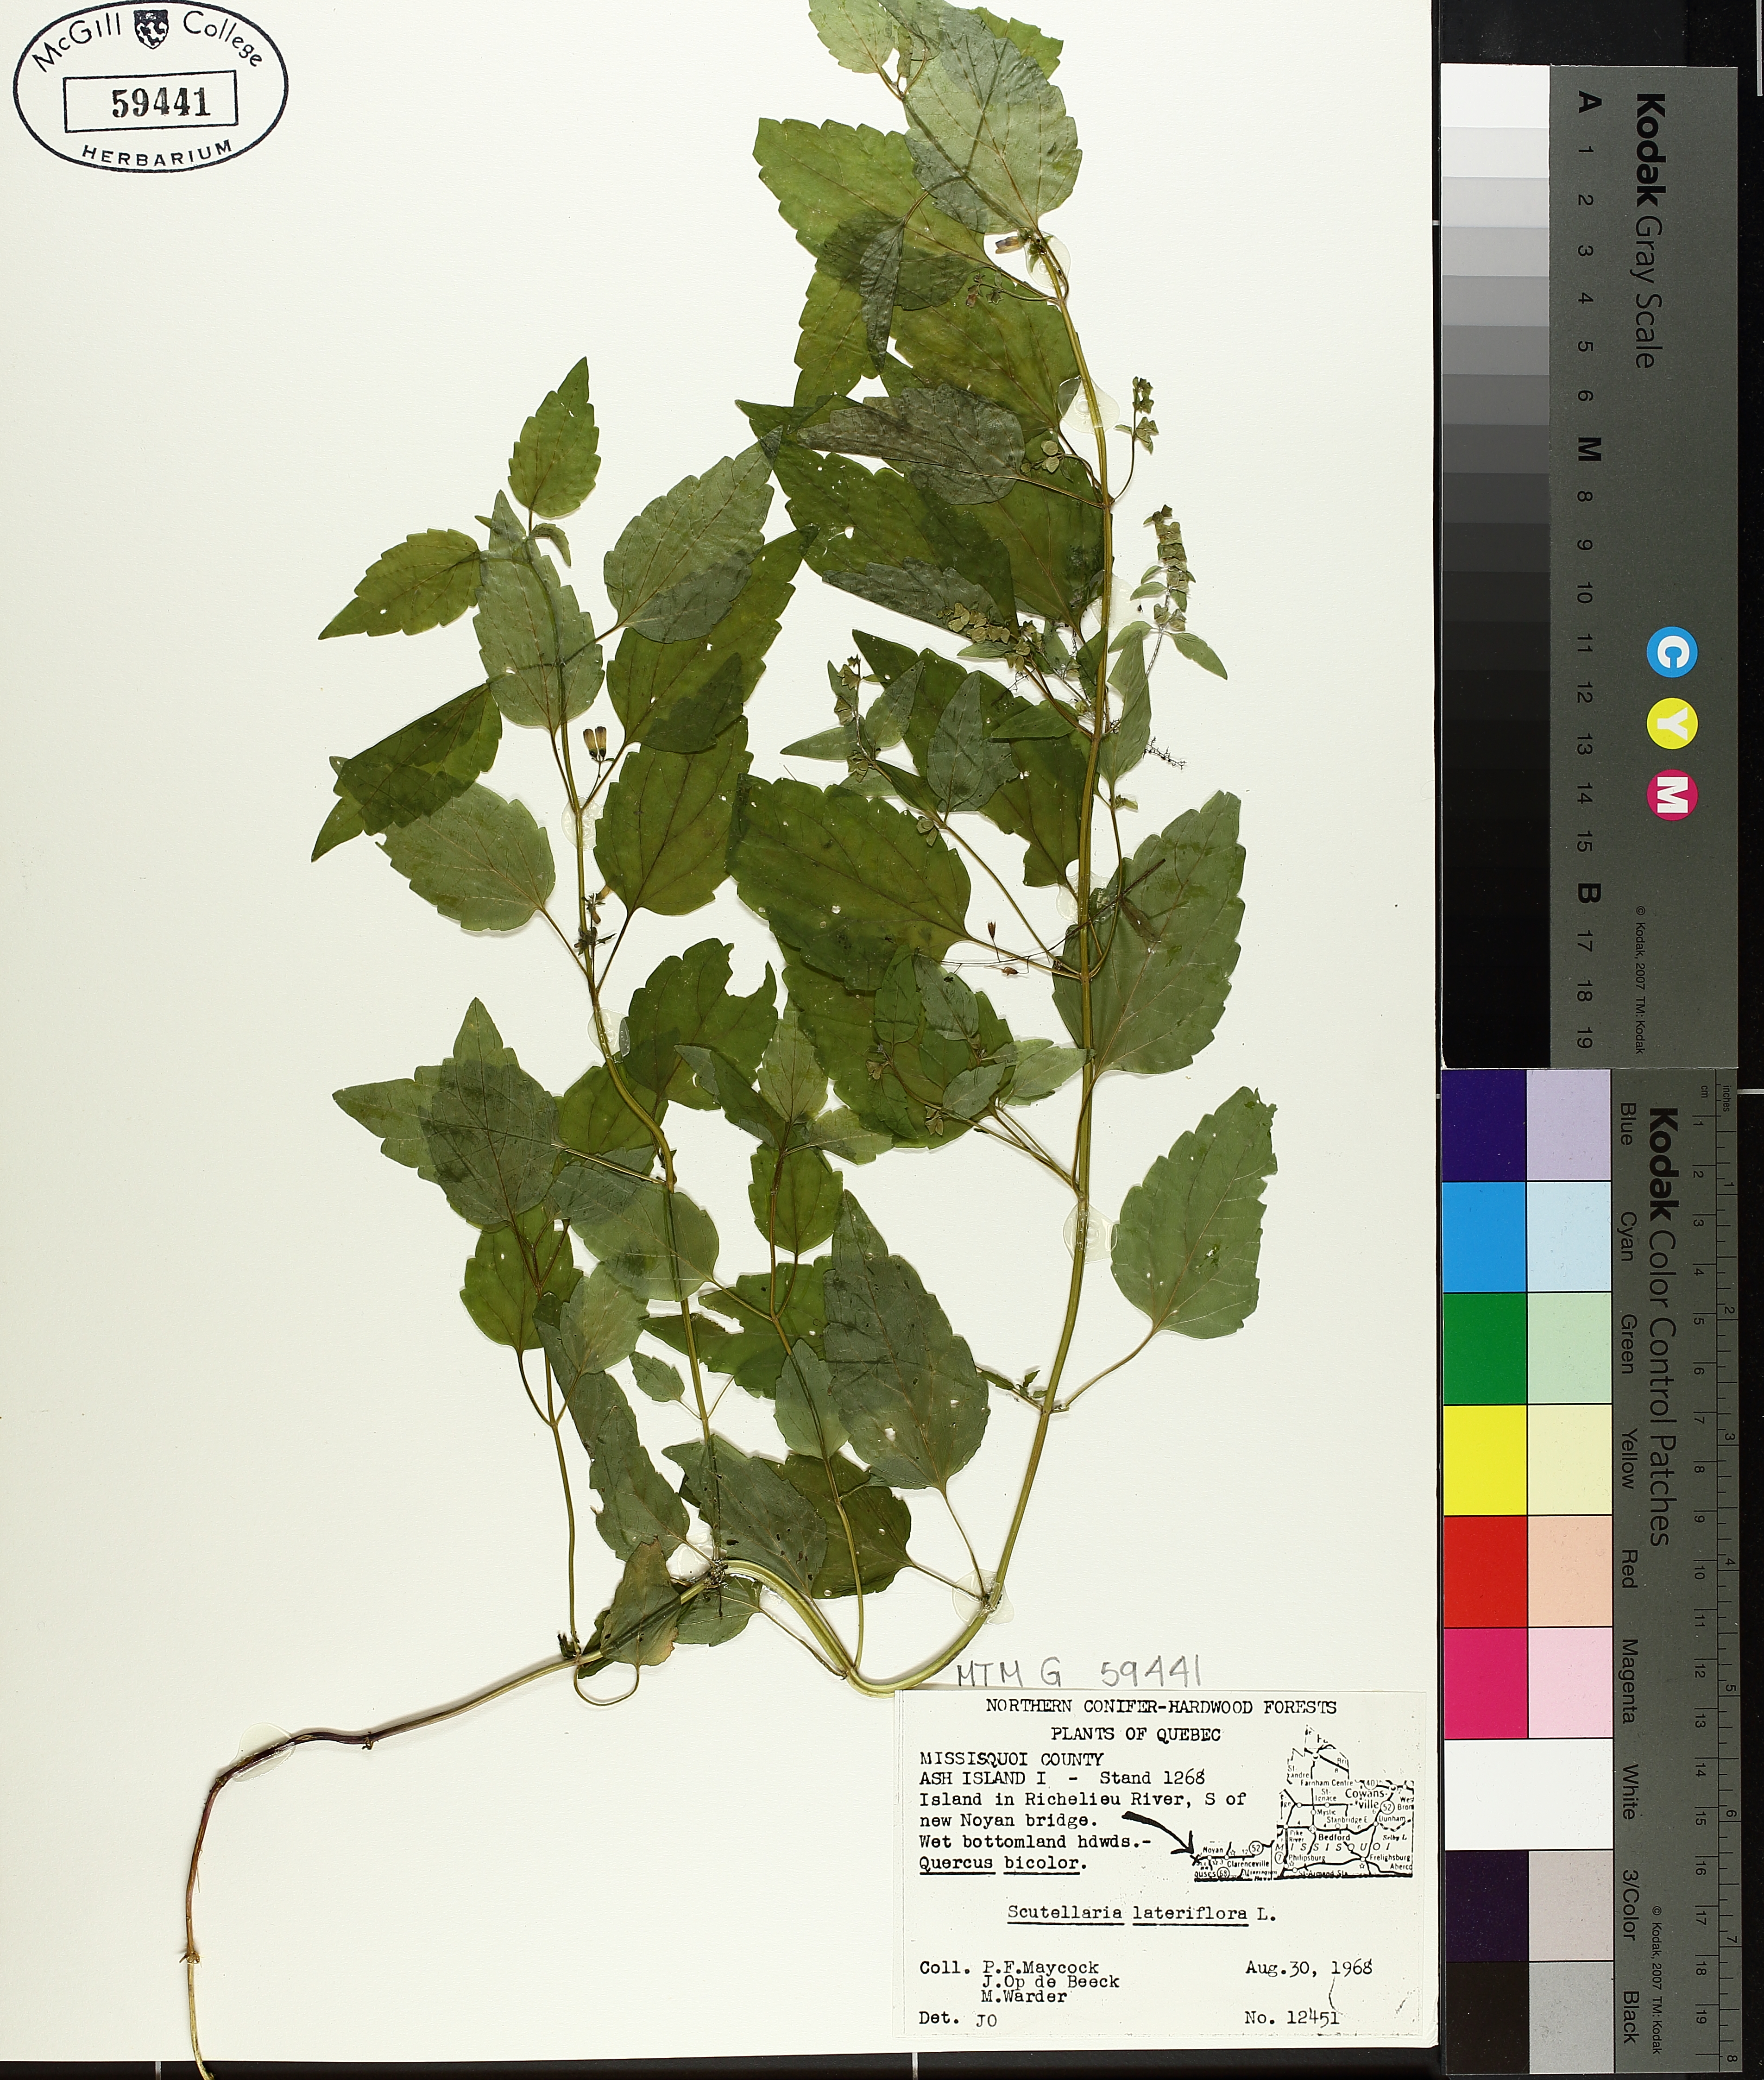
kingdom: Plantae
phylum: Tracheophyta
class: Magnoliopsida
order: Lamiales
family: Lamiaceae
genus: Scutellaria
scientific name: Scutellaria lateriflora
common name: Blue skullcap
